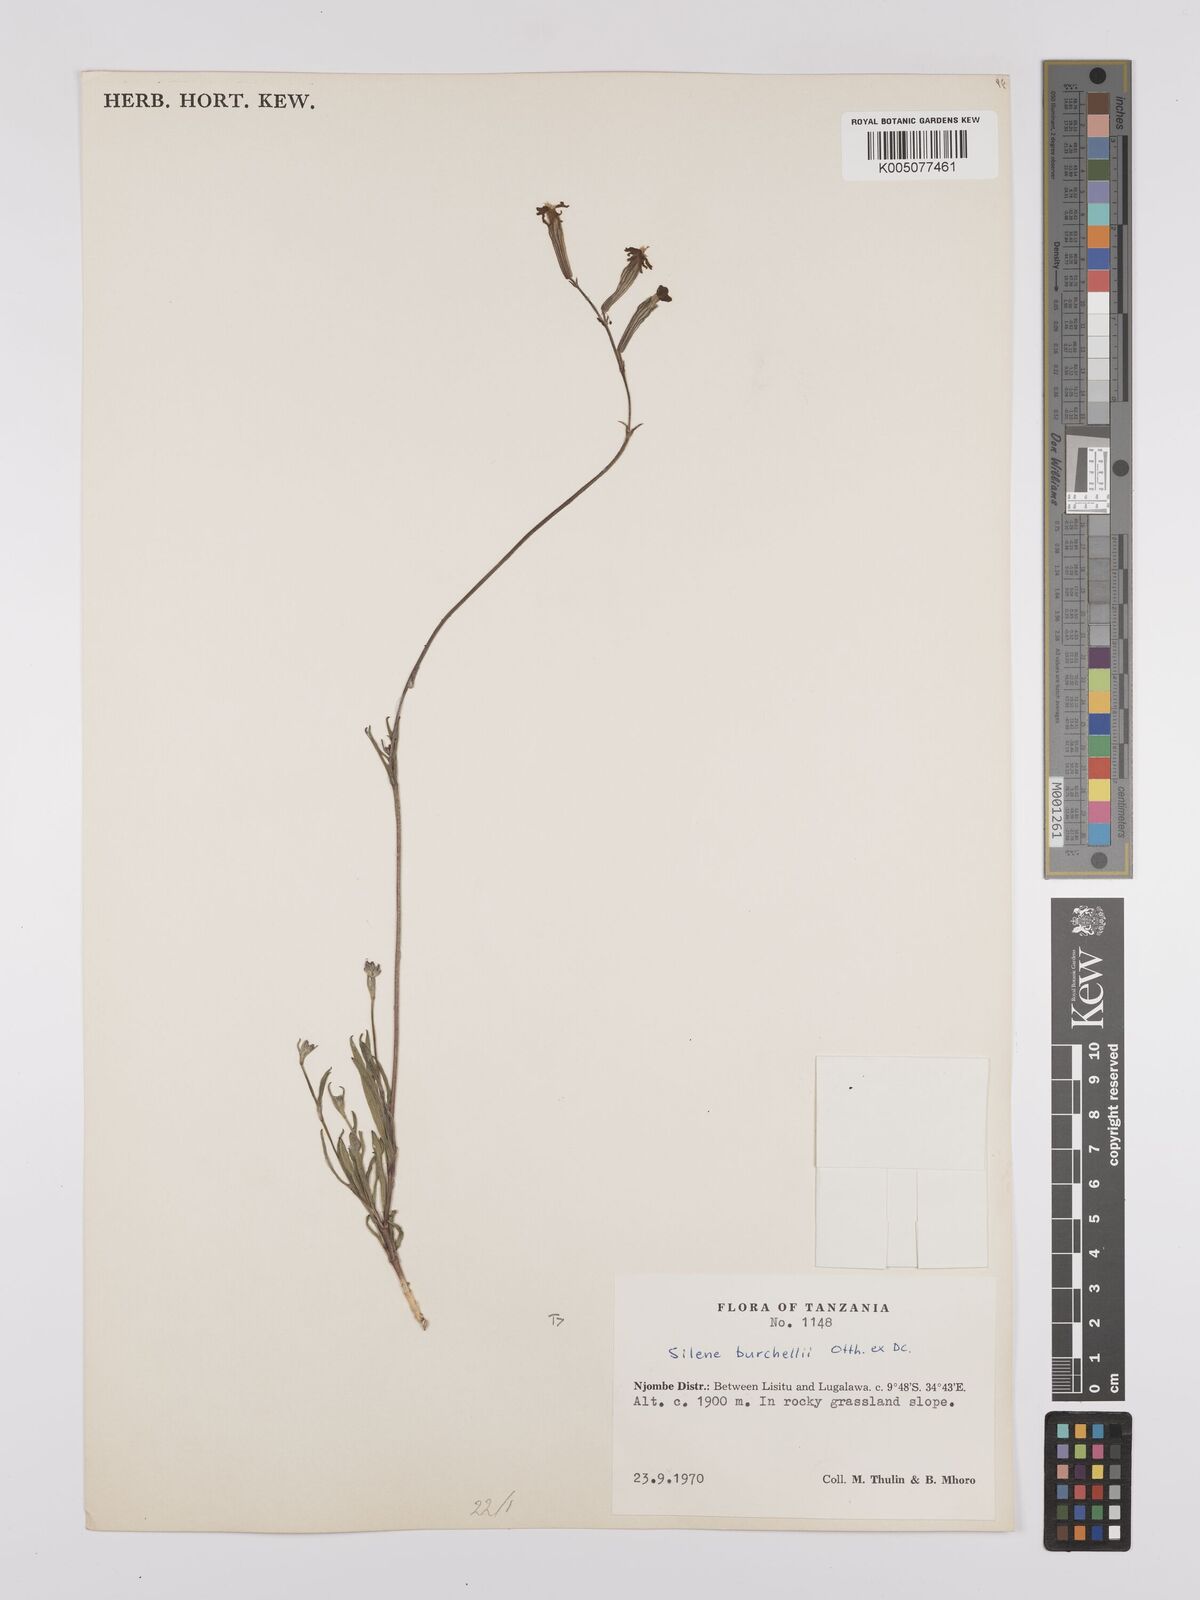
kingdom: Plantae
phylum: Tracheophyta
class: Magnoliopsida
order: Caryophyllales
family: Caryophyllaceae
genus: Silene
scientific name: Silene burchellii
